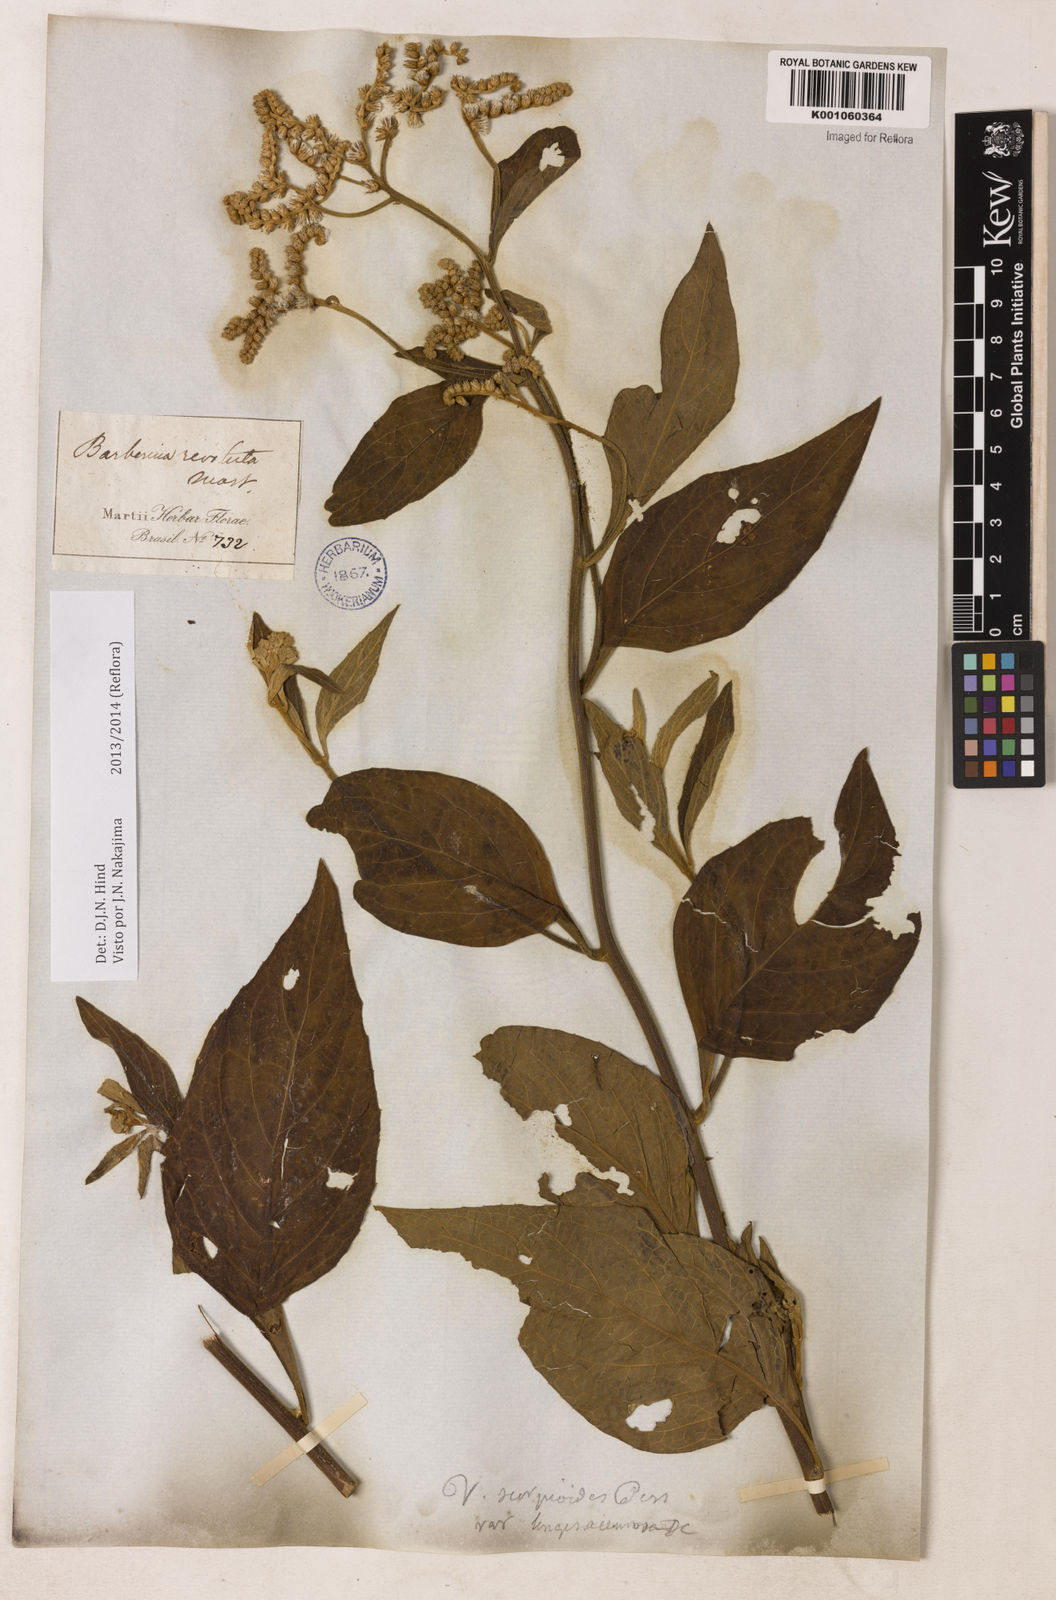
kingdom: Plantae
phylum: Tracheophyta
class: Magnoliopsida
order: Asterales
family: Asteraceae
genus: Cyrtocymura
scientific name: Cyrtocymura scorpioides
